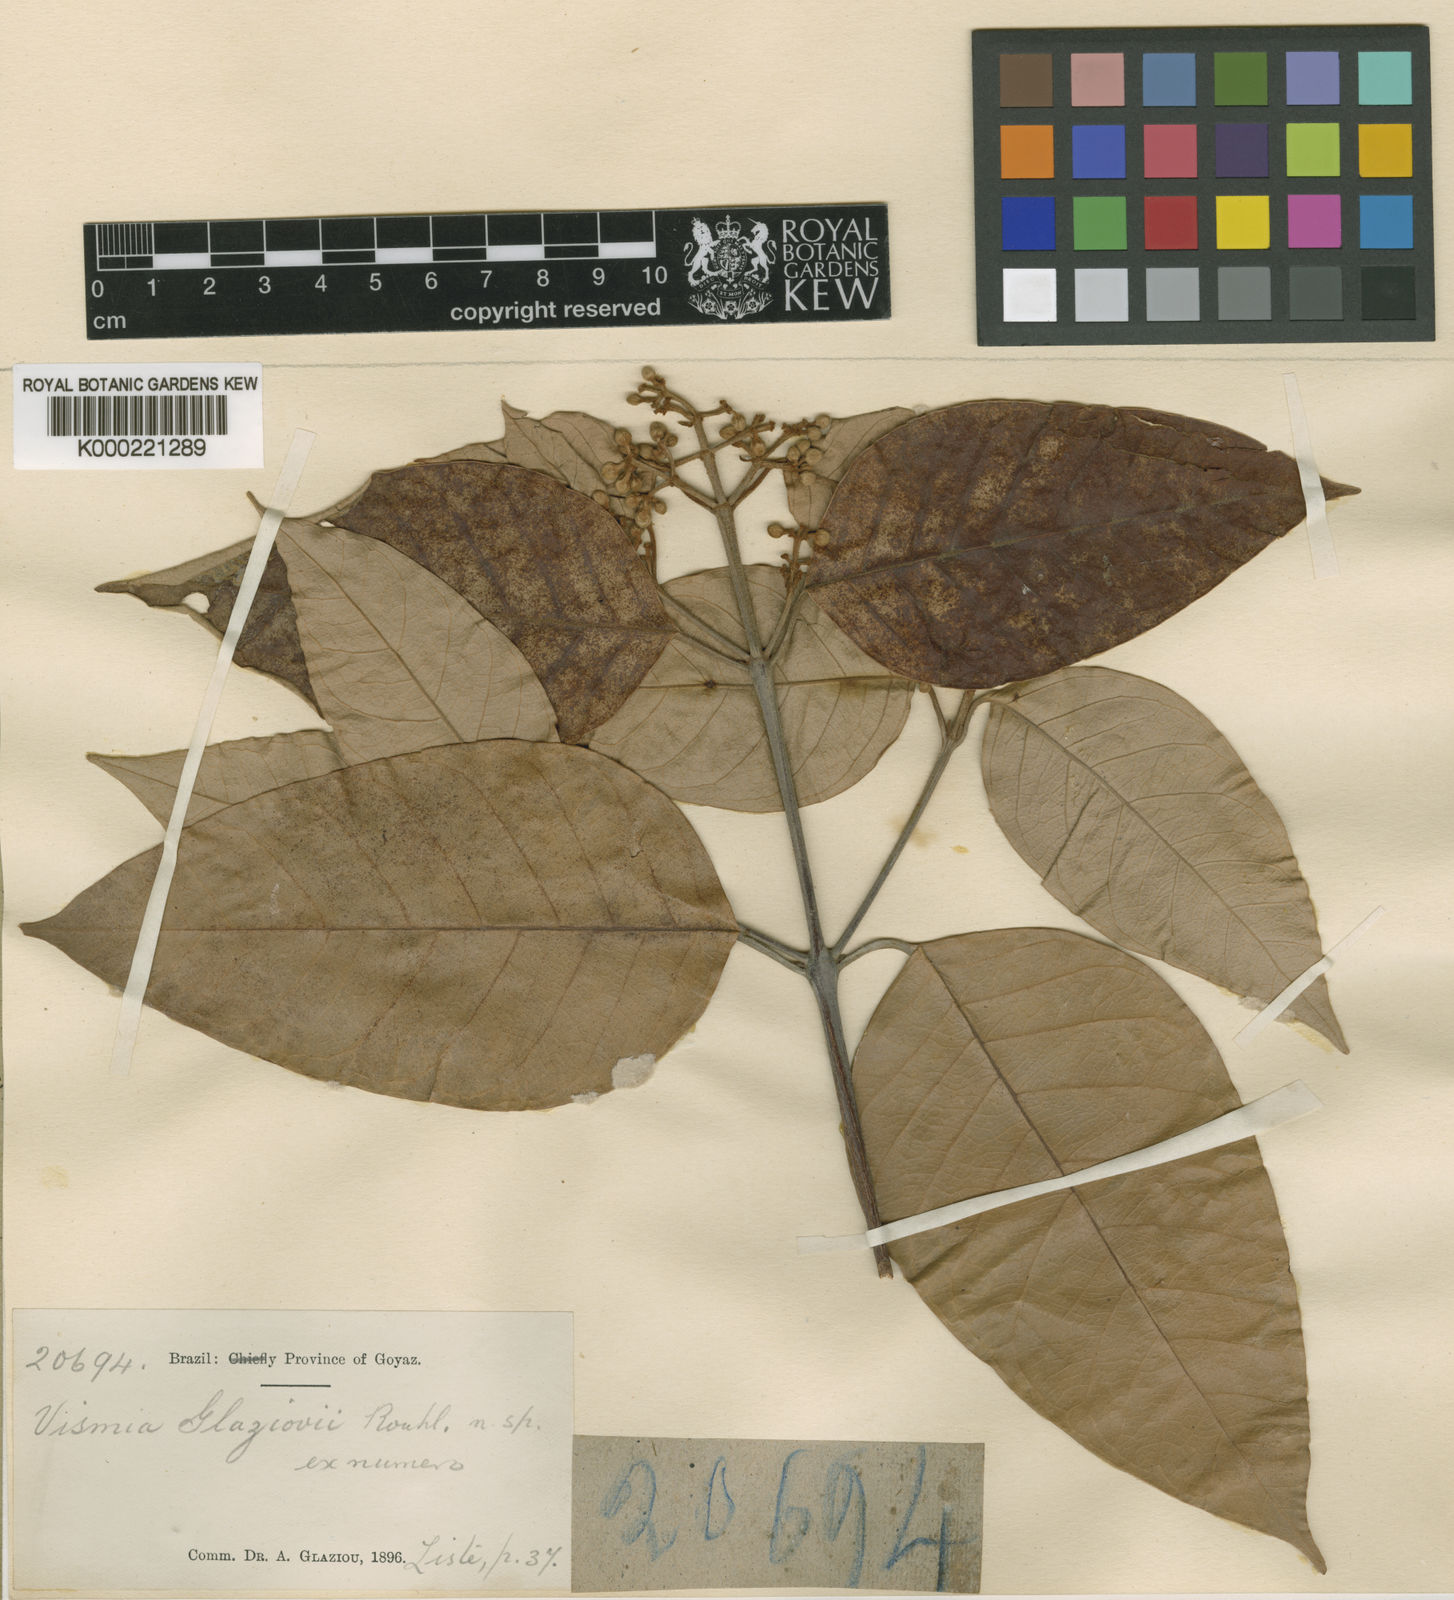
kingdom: Plantae
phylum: Tracheophyta
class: Magnoliopsida
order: Malpighiales
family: Hypericaceae
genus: Vismia
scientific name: Vismia gracilis
